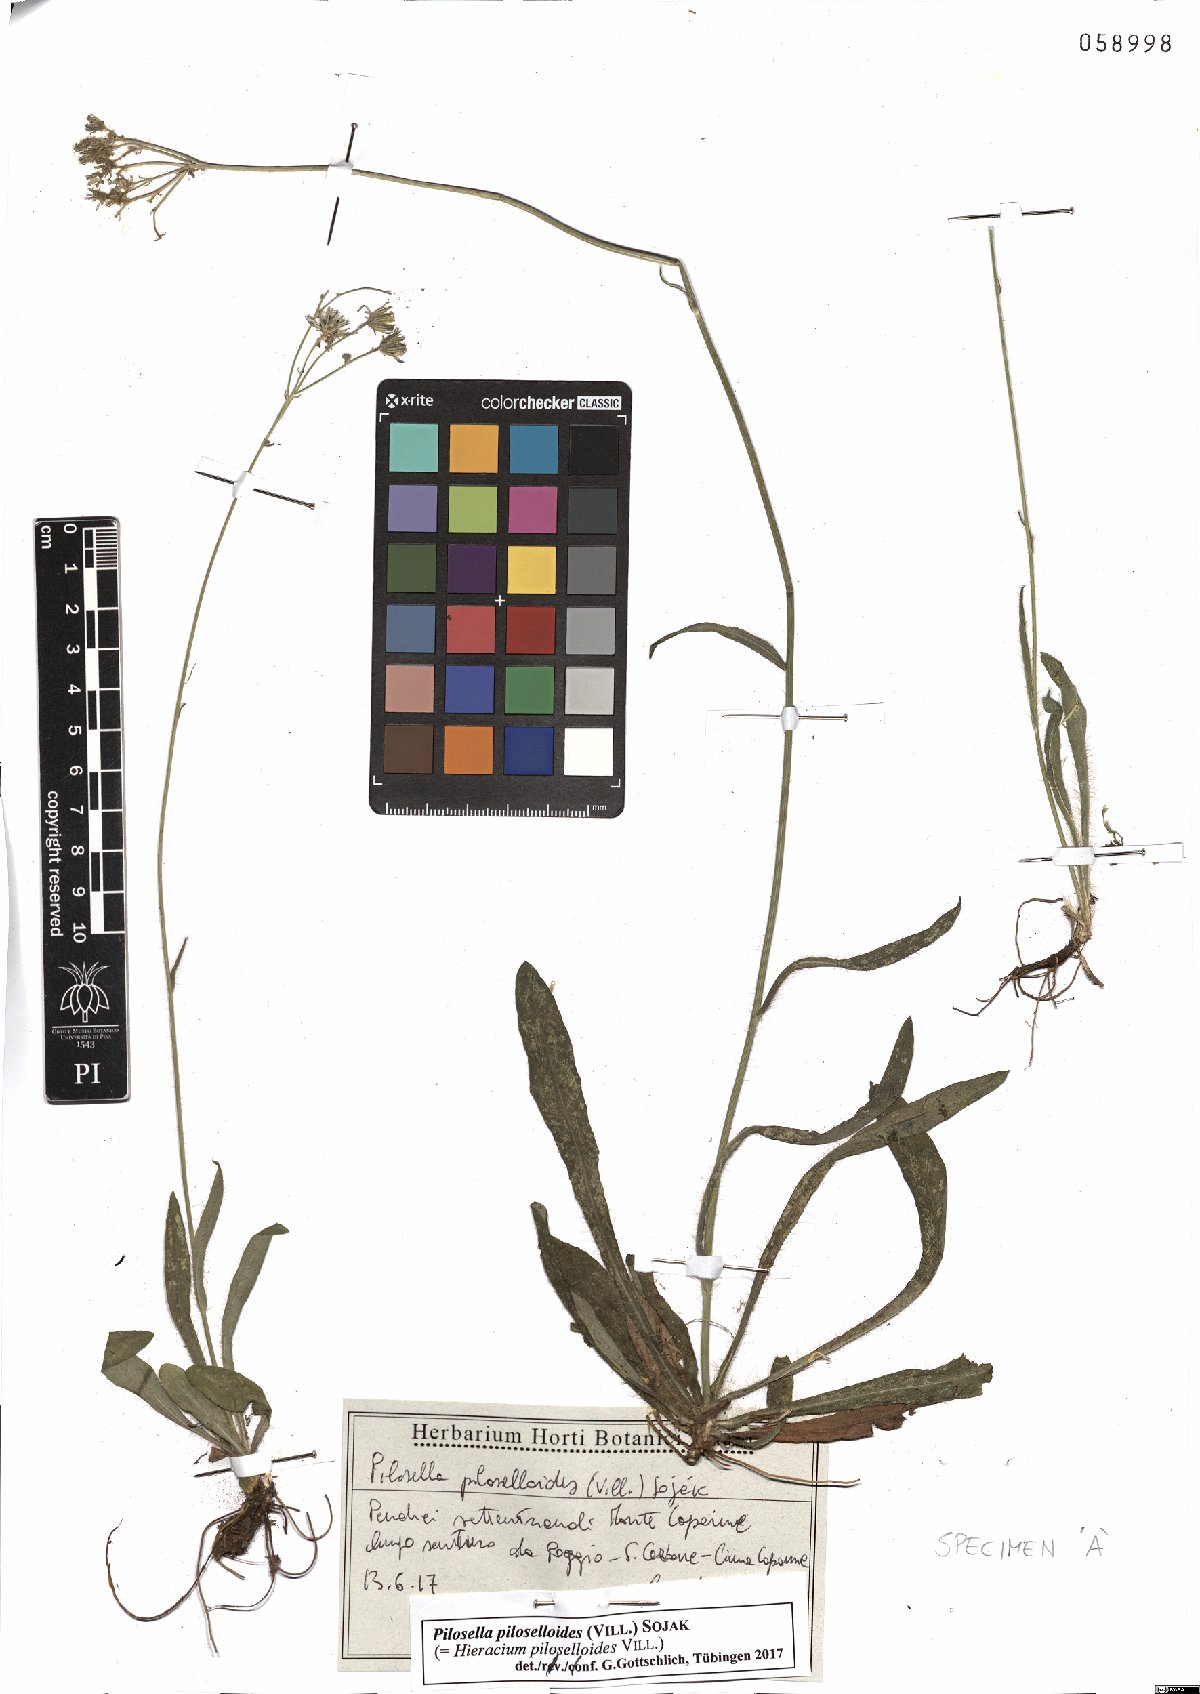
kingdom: Plantae
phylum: Tracheophyta
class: Magnoliopsida
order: Asterales
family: Asteraceae
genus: Pilosella
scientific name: Pilosella piloselloides
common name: Glaucous king-devil
